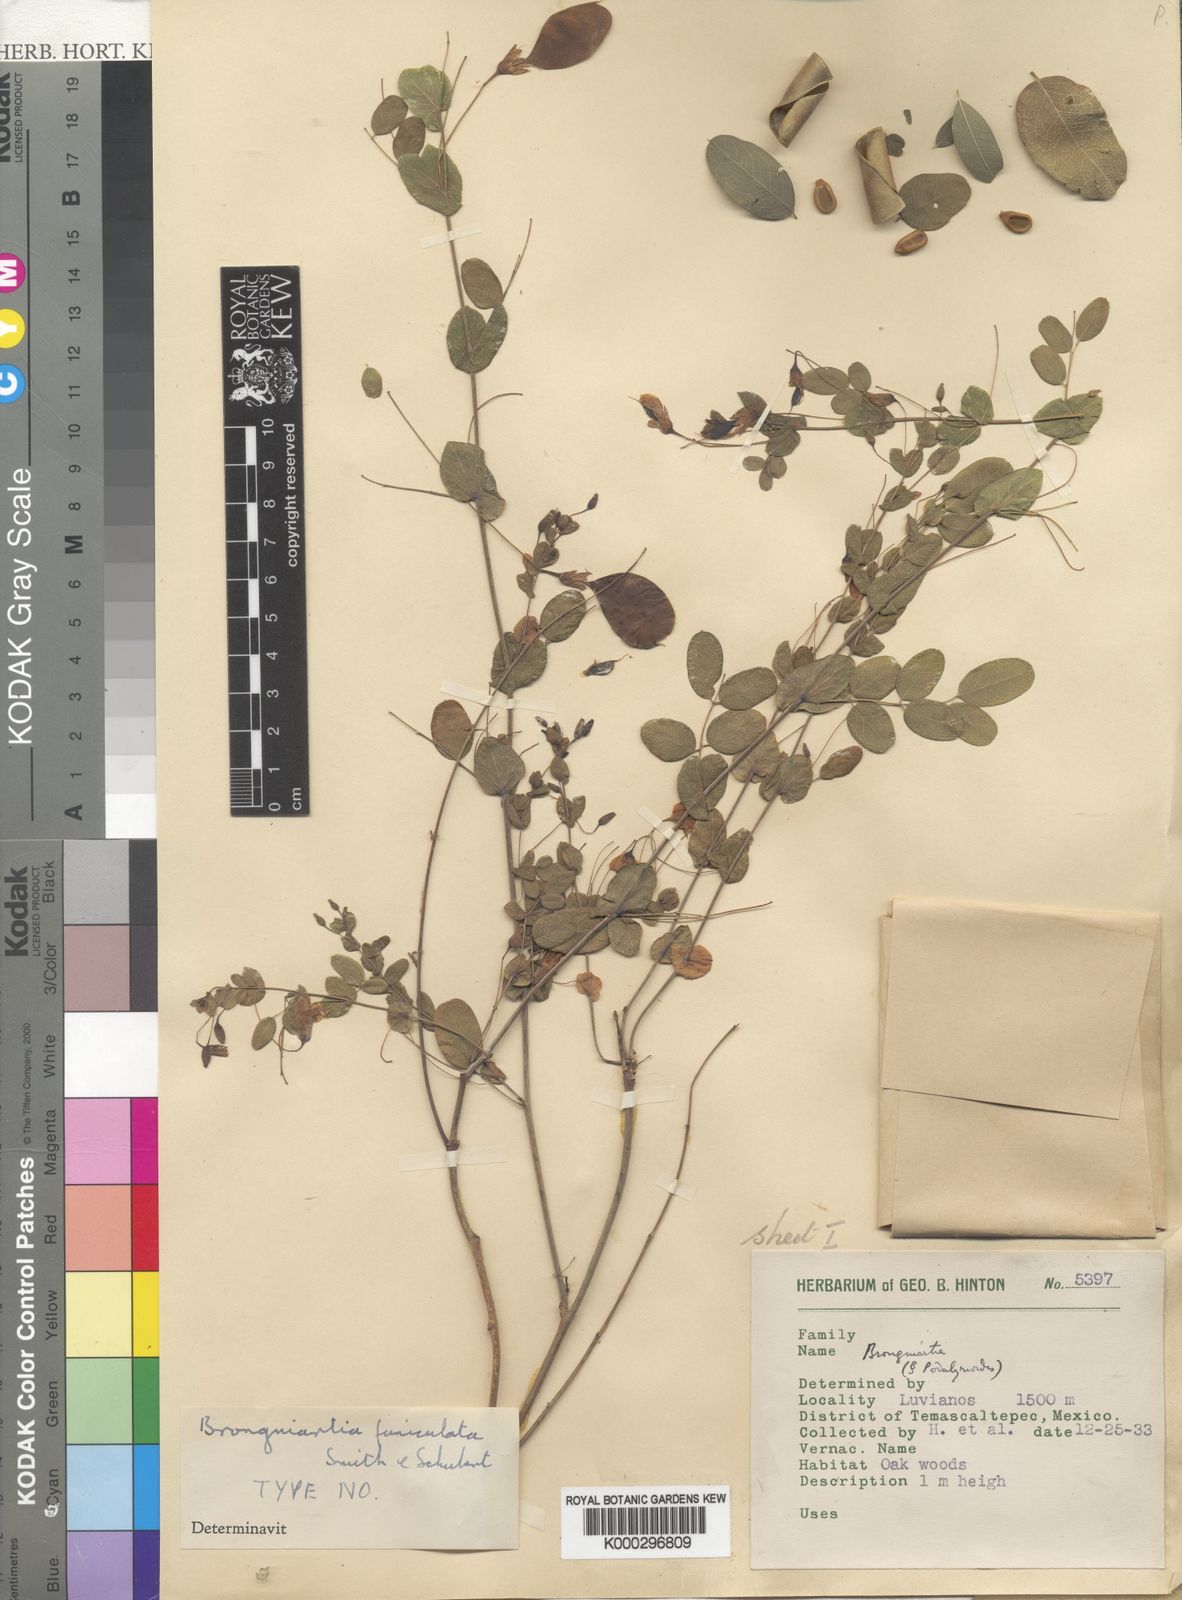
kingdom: Plantae
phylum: Tracheophyta
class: Magnoliopsida
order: Fabales
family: Fabaceae
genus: Brongniartia
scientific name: Brongniartia funiculata
